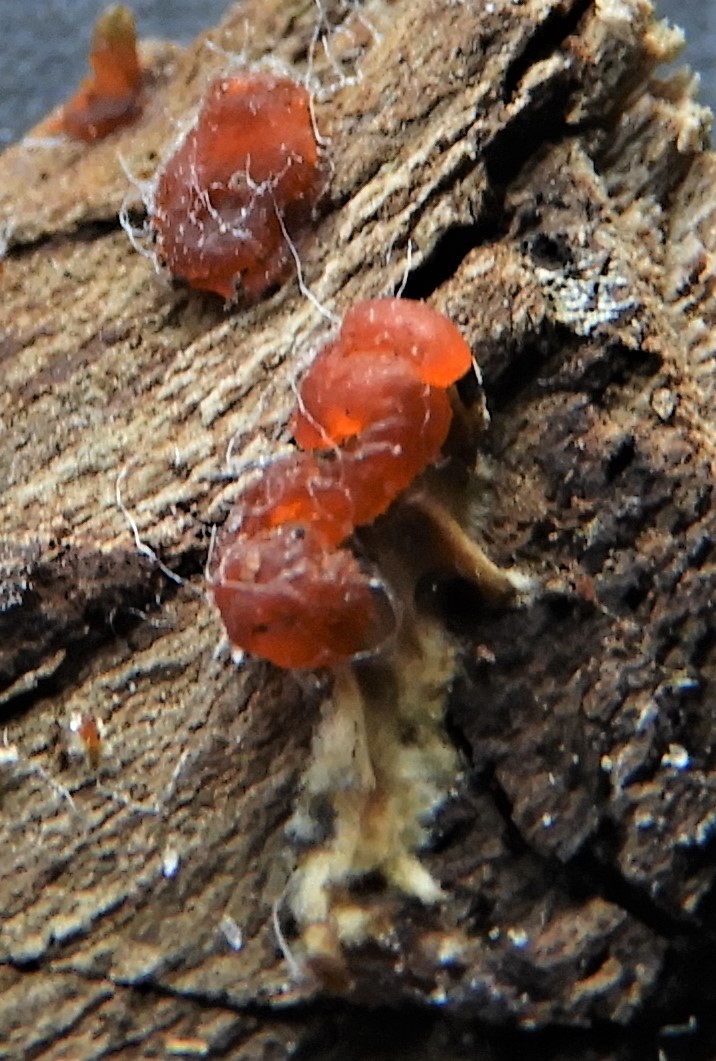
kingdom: Fungi
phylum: Basidiomycota
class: Dacrymycetes
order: Dacrymycetales
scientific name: Dacrymycetales
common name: tåresvampordenen
